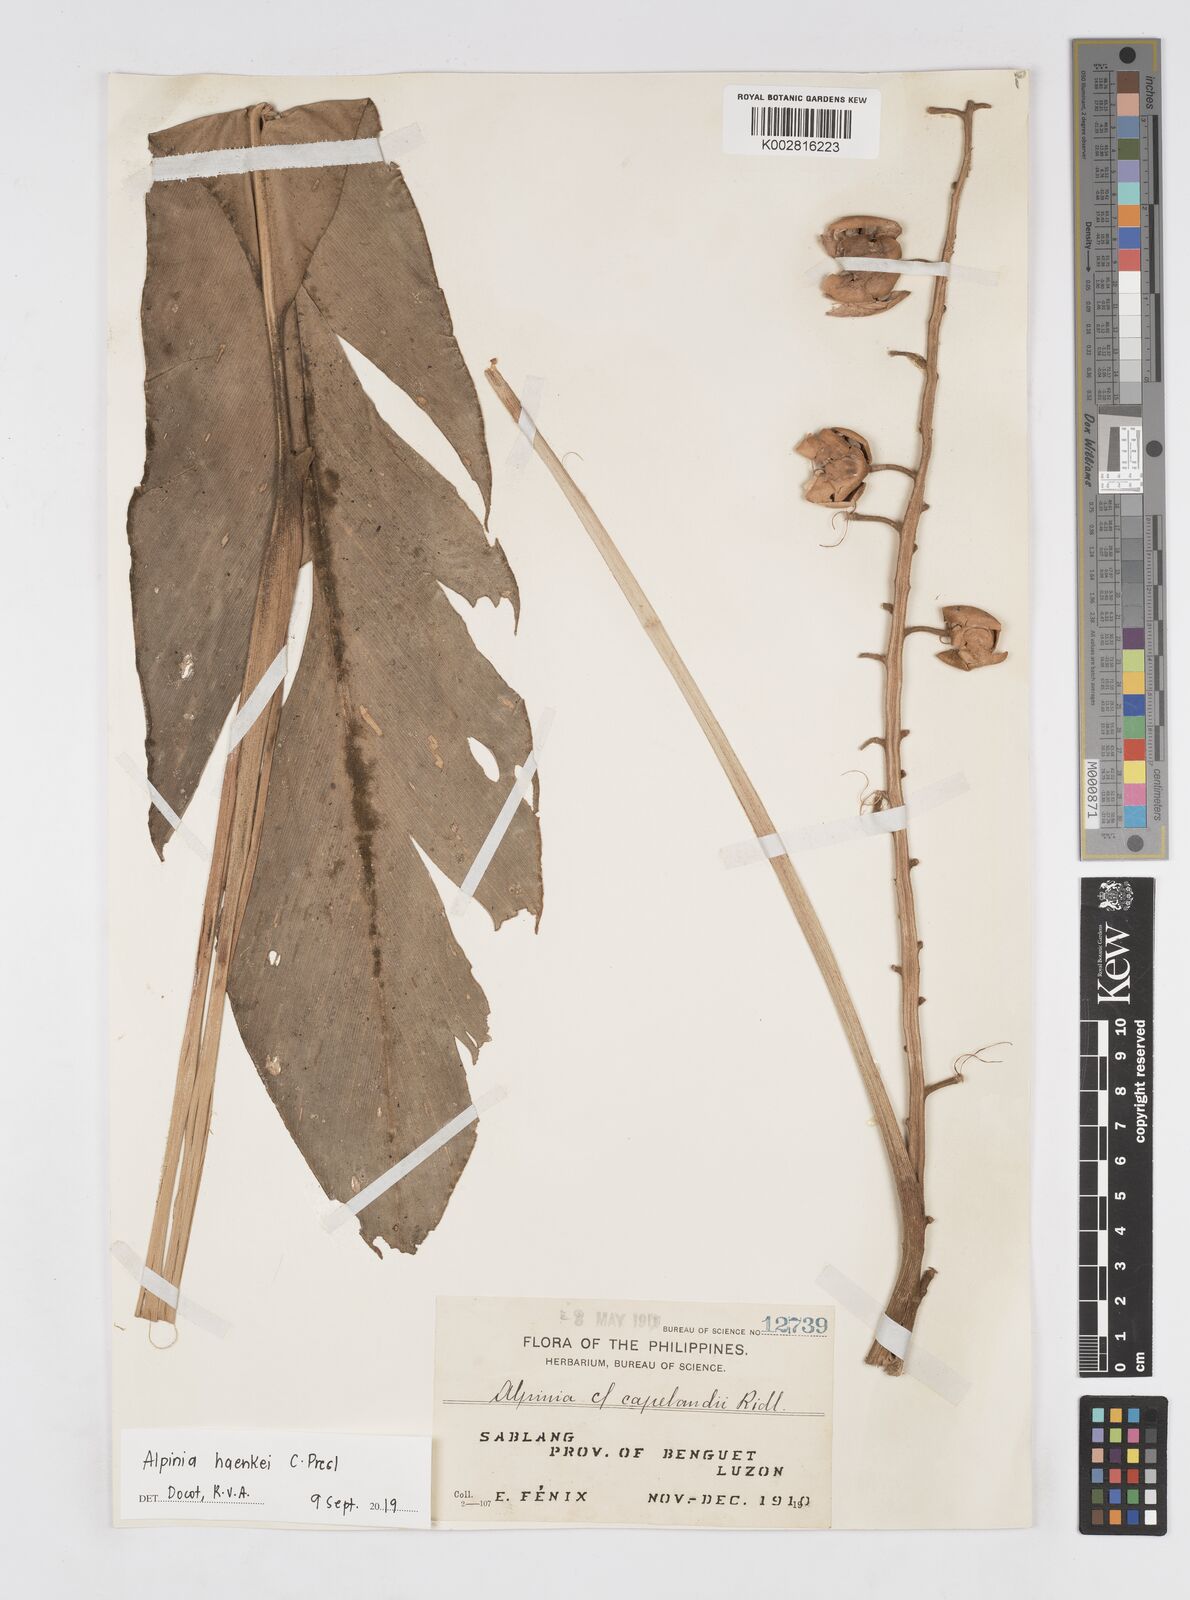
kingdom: Plantae
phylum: Tracheophyta
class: Liliopsida
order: Zingiberales
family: Zingiberaceae
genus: Alpinia
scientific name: Alpinia haenkei
